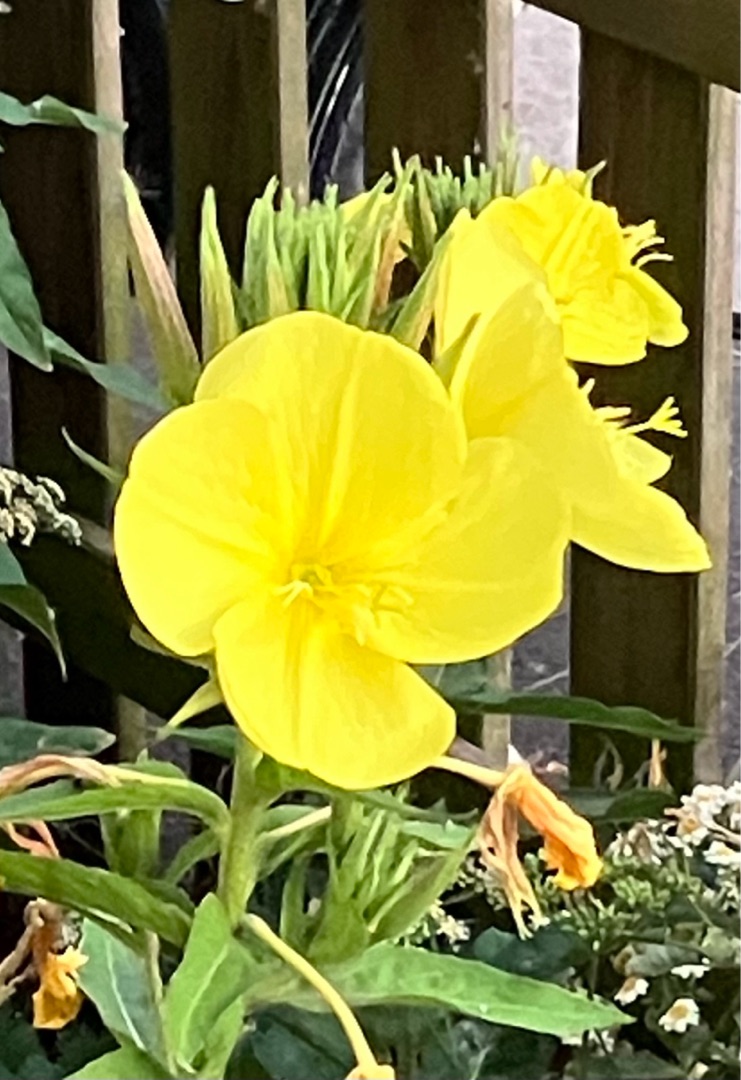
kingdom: Plantae
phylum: Tracheophyta
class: Magnoliopsida
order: Myrtales
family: Onagraceae
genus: Oenothera
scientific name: Oenothera glazioviana
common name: Kæmpe-natlys
